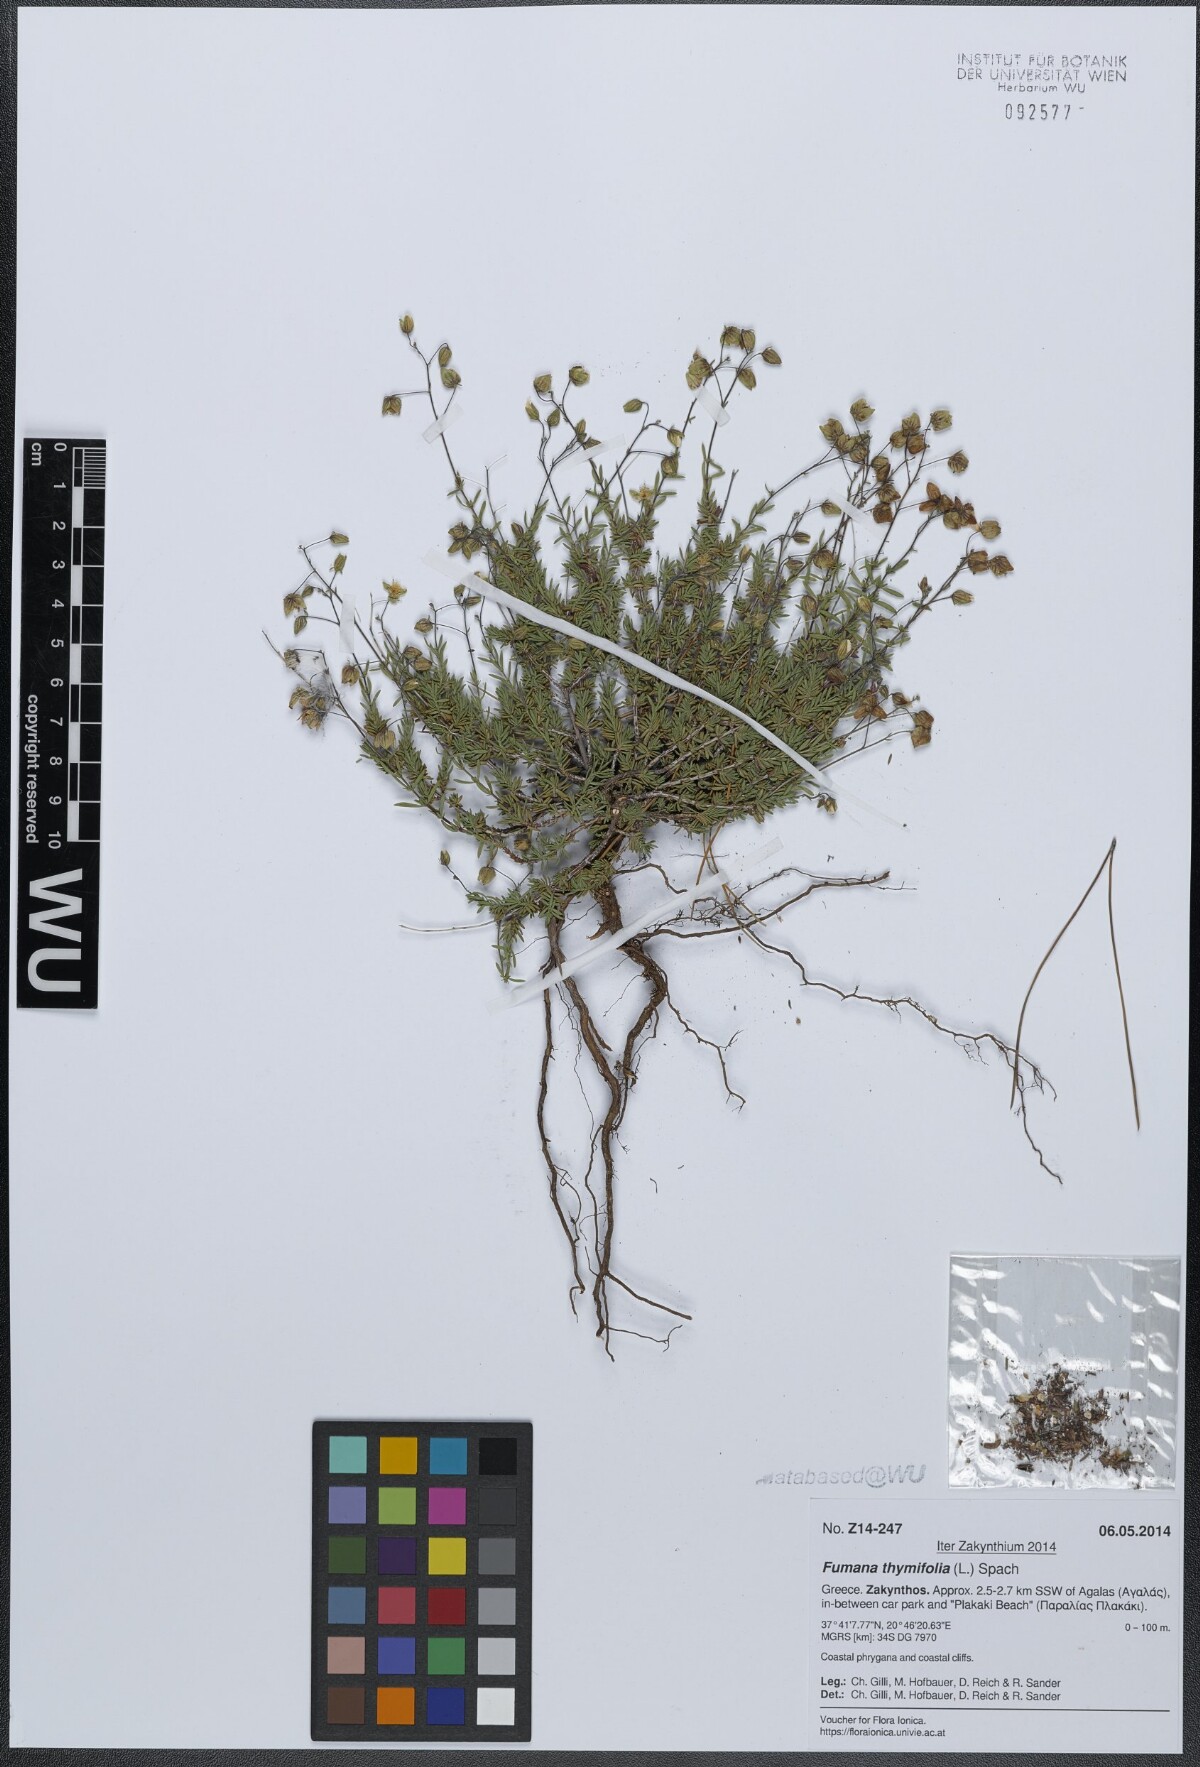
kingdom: Plantae
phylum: Tracheophyta
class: Magnoliopsida
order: Malvales
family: Cistaceae
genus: Fumana
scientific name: Fumana thymifolia
